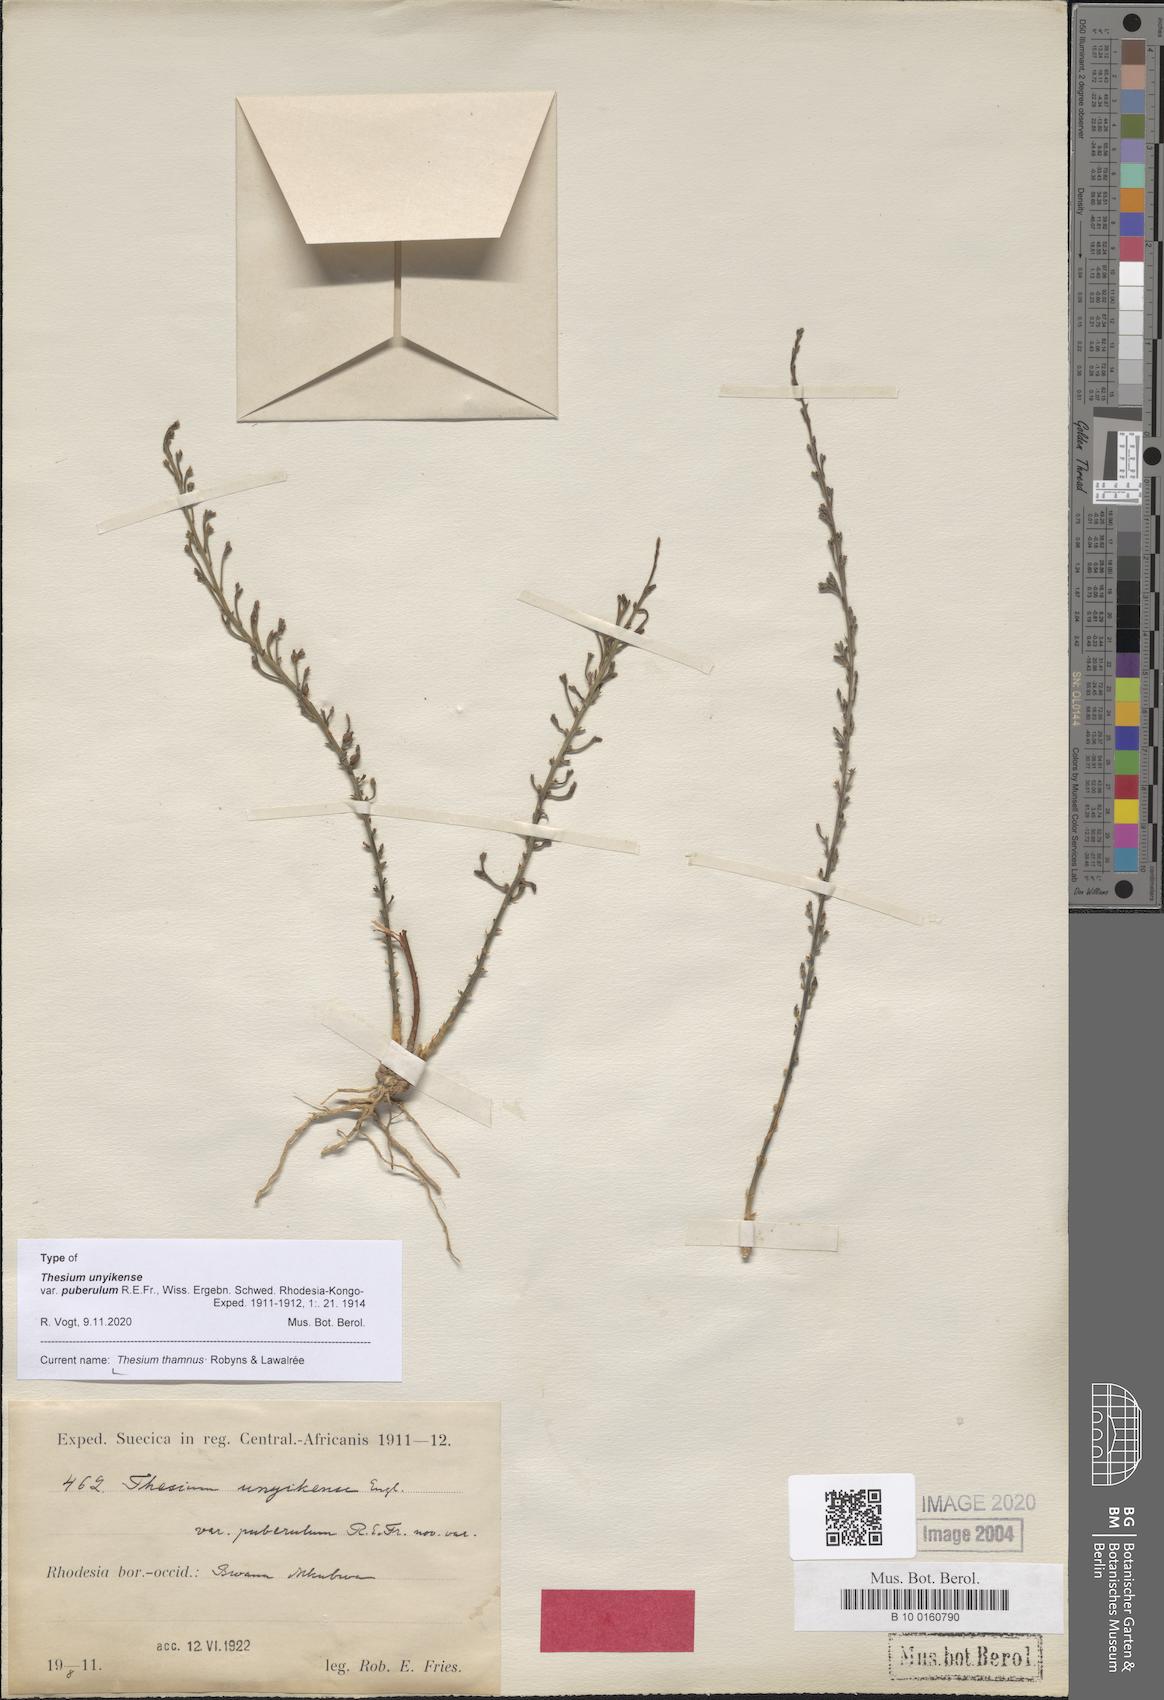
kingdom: Plantae
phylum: Tracheophyta
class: Magnoliopsida
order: Santalales
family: Thesiaceae
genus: Thesium
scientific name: Thesium thamnus
